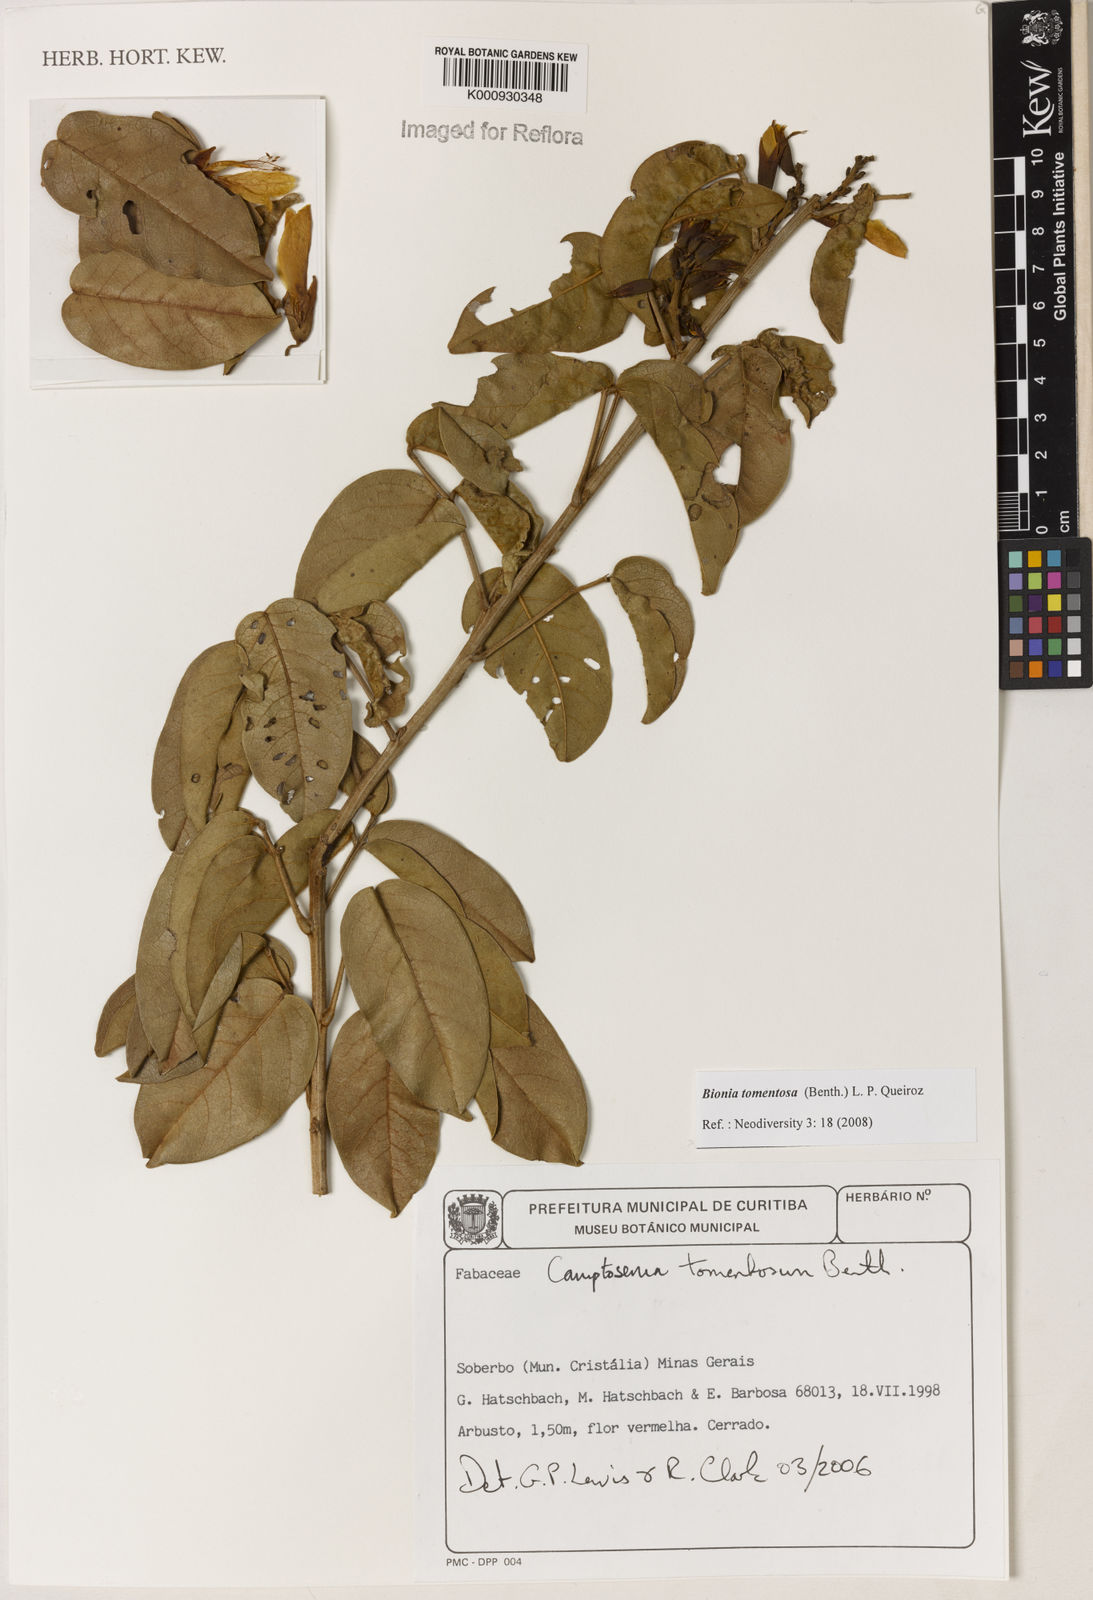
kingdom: Plantae
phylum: Tracheophyta
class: Magnoliopsida
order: Fabales
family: Fabaceae
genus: Camptosema
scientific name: Camptosema tomentosum
